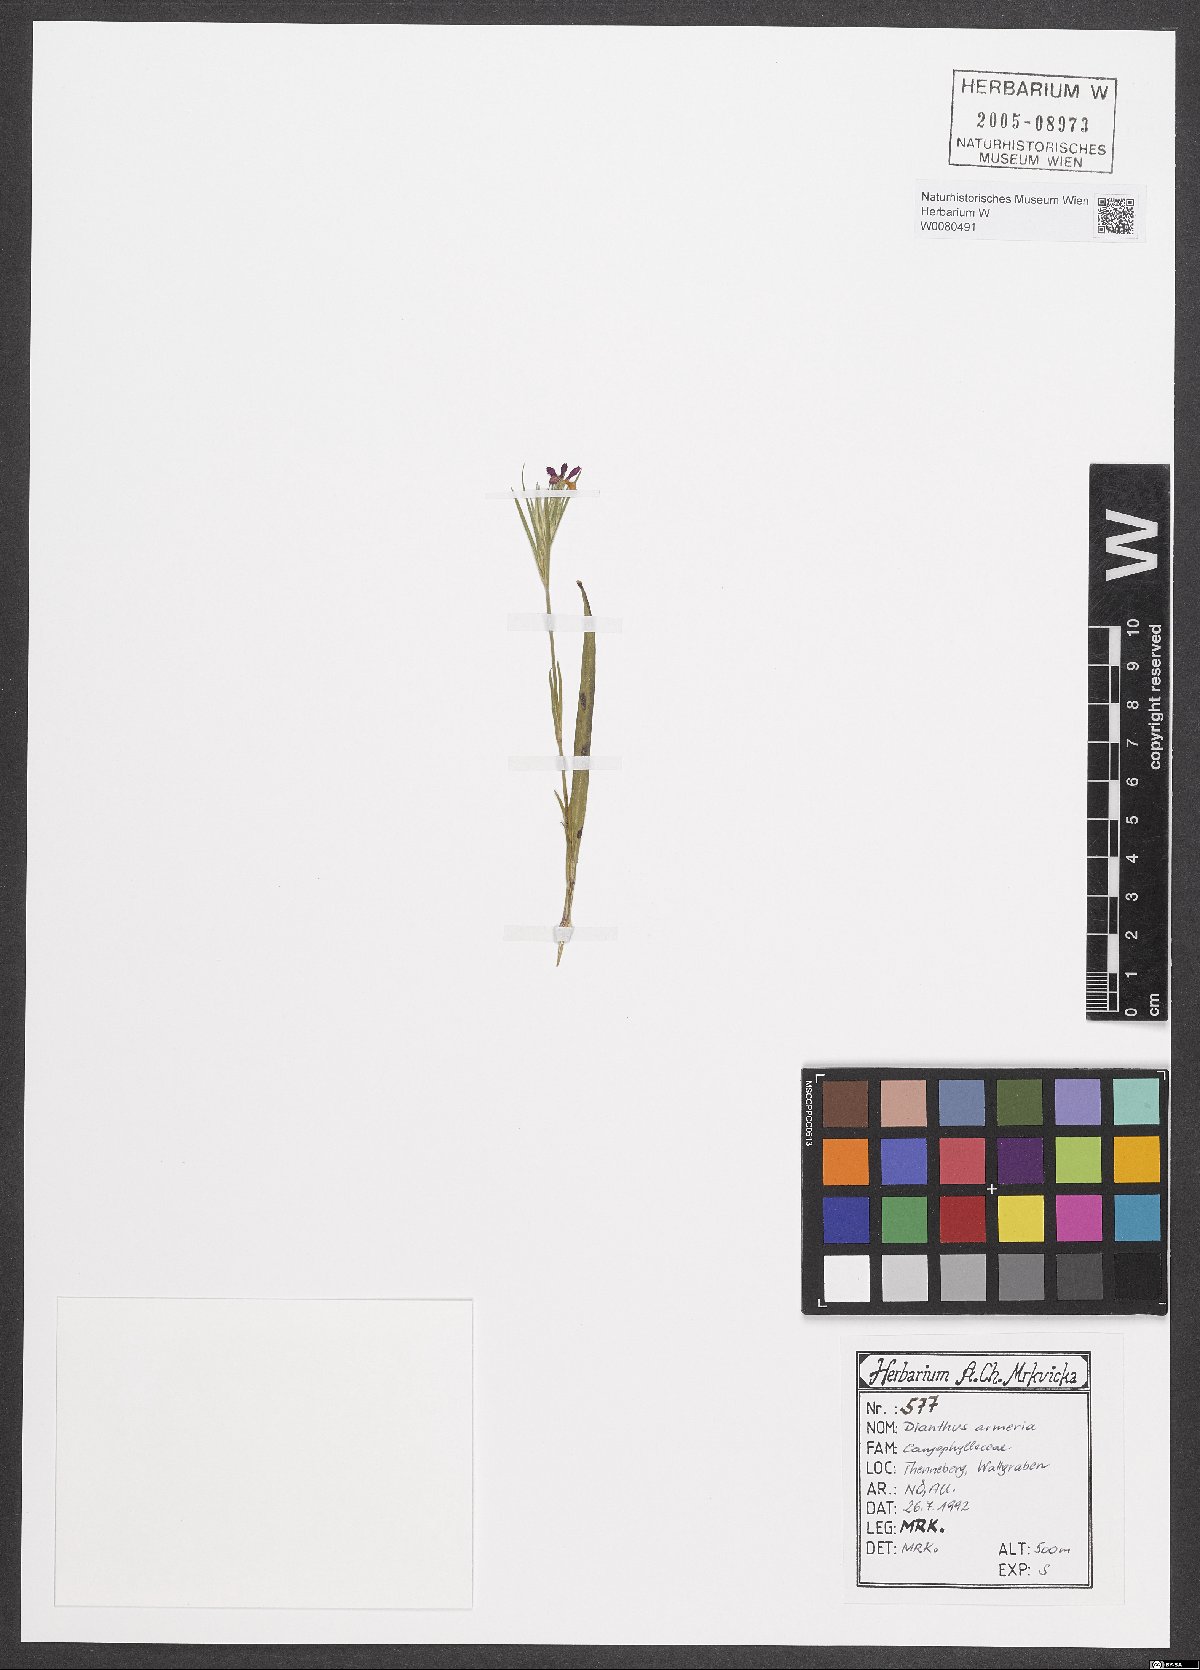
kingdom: Plantae
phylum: Tracheophyta
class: Magnoliopsida
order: Caryophyllales
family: Caryophyllaceae
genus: Dianthus
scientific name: Dianthus armeria
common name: Deptford pink
